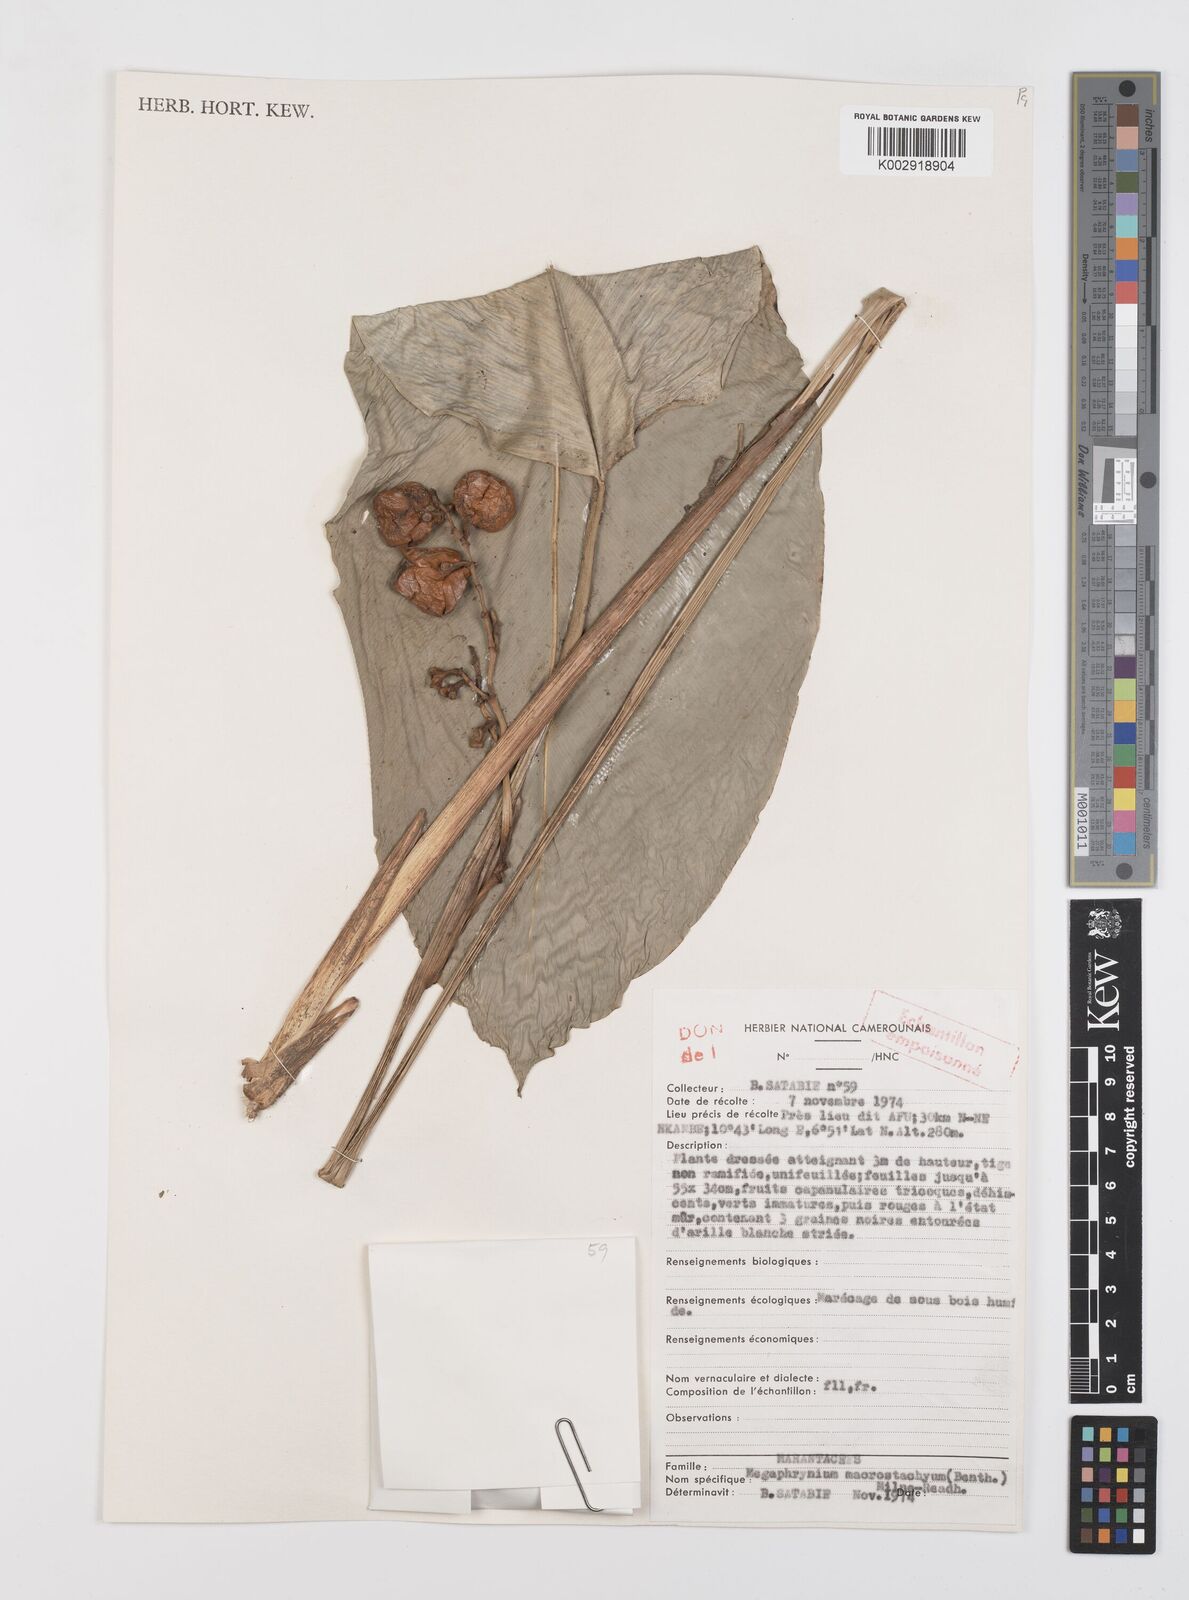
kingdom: Plantae
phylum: Tracheophyta
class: Liliopsida
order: Zingiberales
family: Marantaceae
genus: Megaphrynium
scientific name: Megaphrynium macrostachyum
